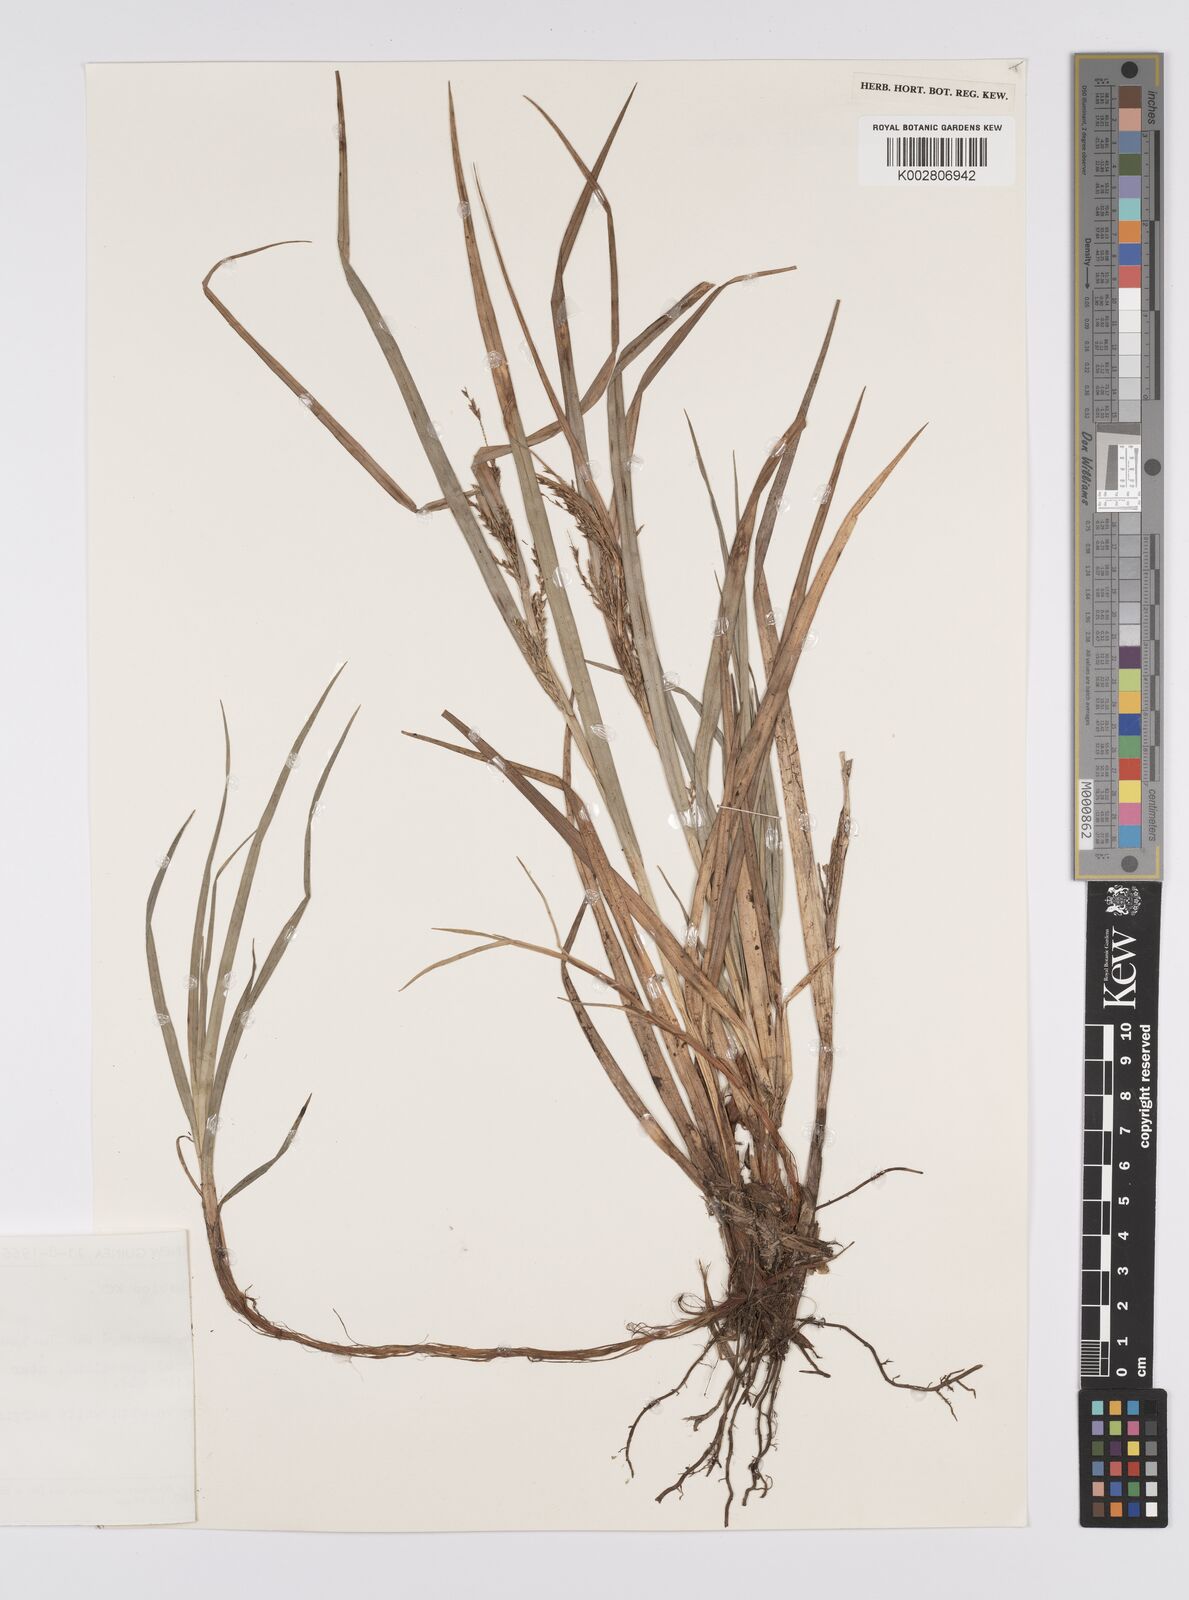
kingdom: Plantae
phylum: Tracheophyta
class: Liliopsida
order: Poales
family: Cyperaceae
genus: Carex
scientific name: Carex celebica
